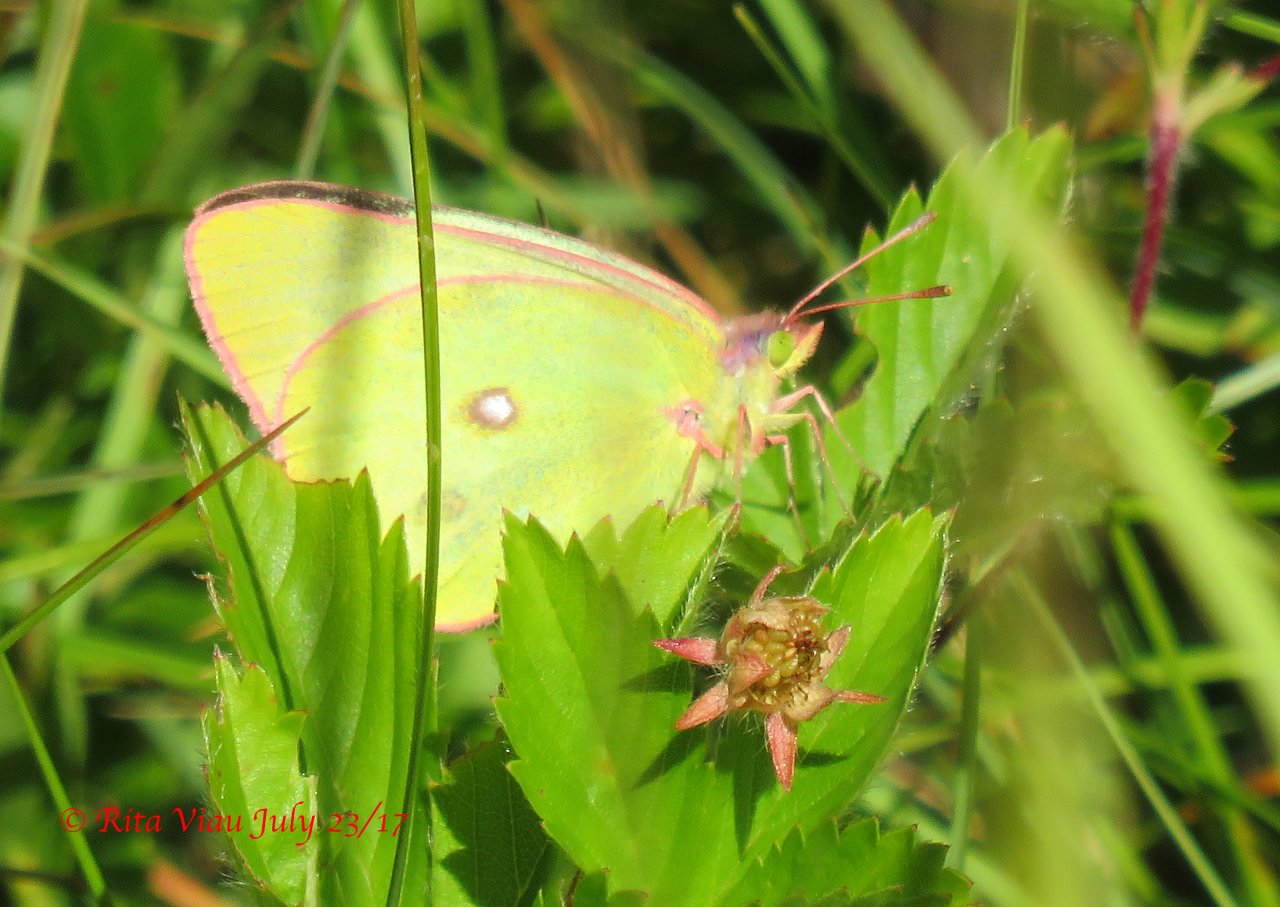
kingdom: Animalia
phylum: Arthropoda
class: Insecta
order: Lepidoptera
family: Pieridae
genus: Colias
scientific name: Colias interior
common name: Pink-edged Sulphur
